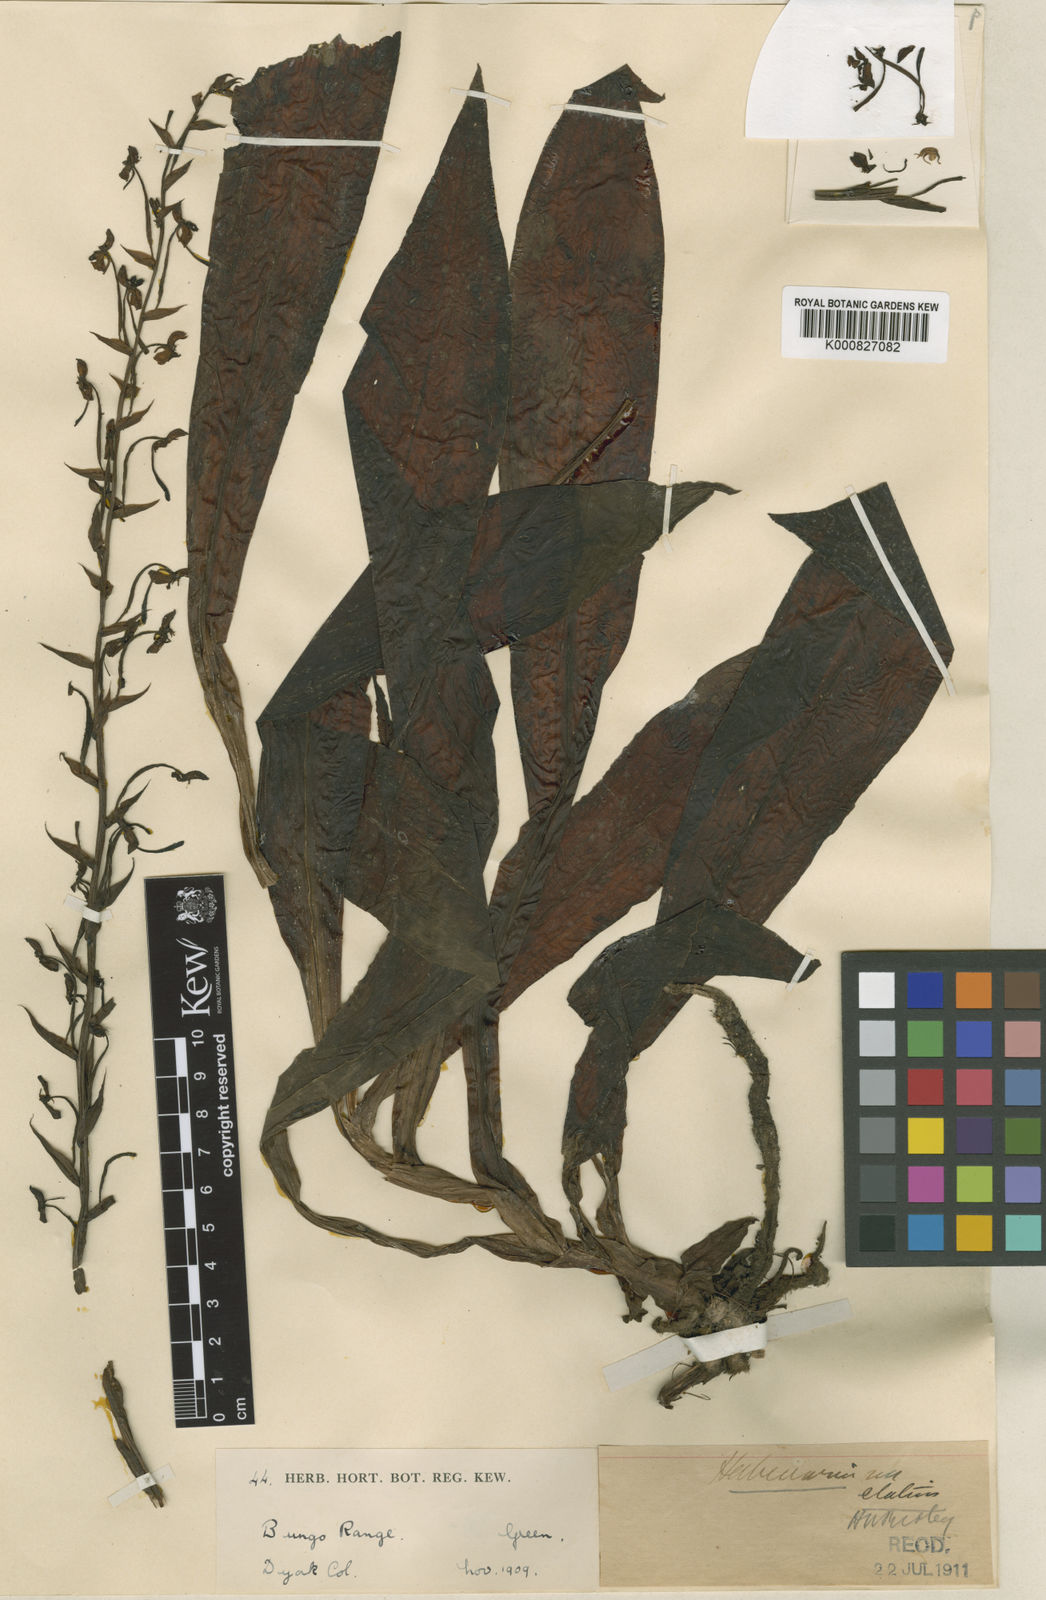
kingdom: Plantae
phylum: Tracheophyta
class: Liliopsida
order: Asparagales
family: Orchidaceae
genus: Habenaria
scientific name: Habenaria elatius
